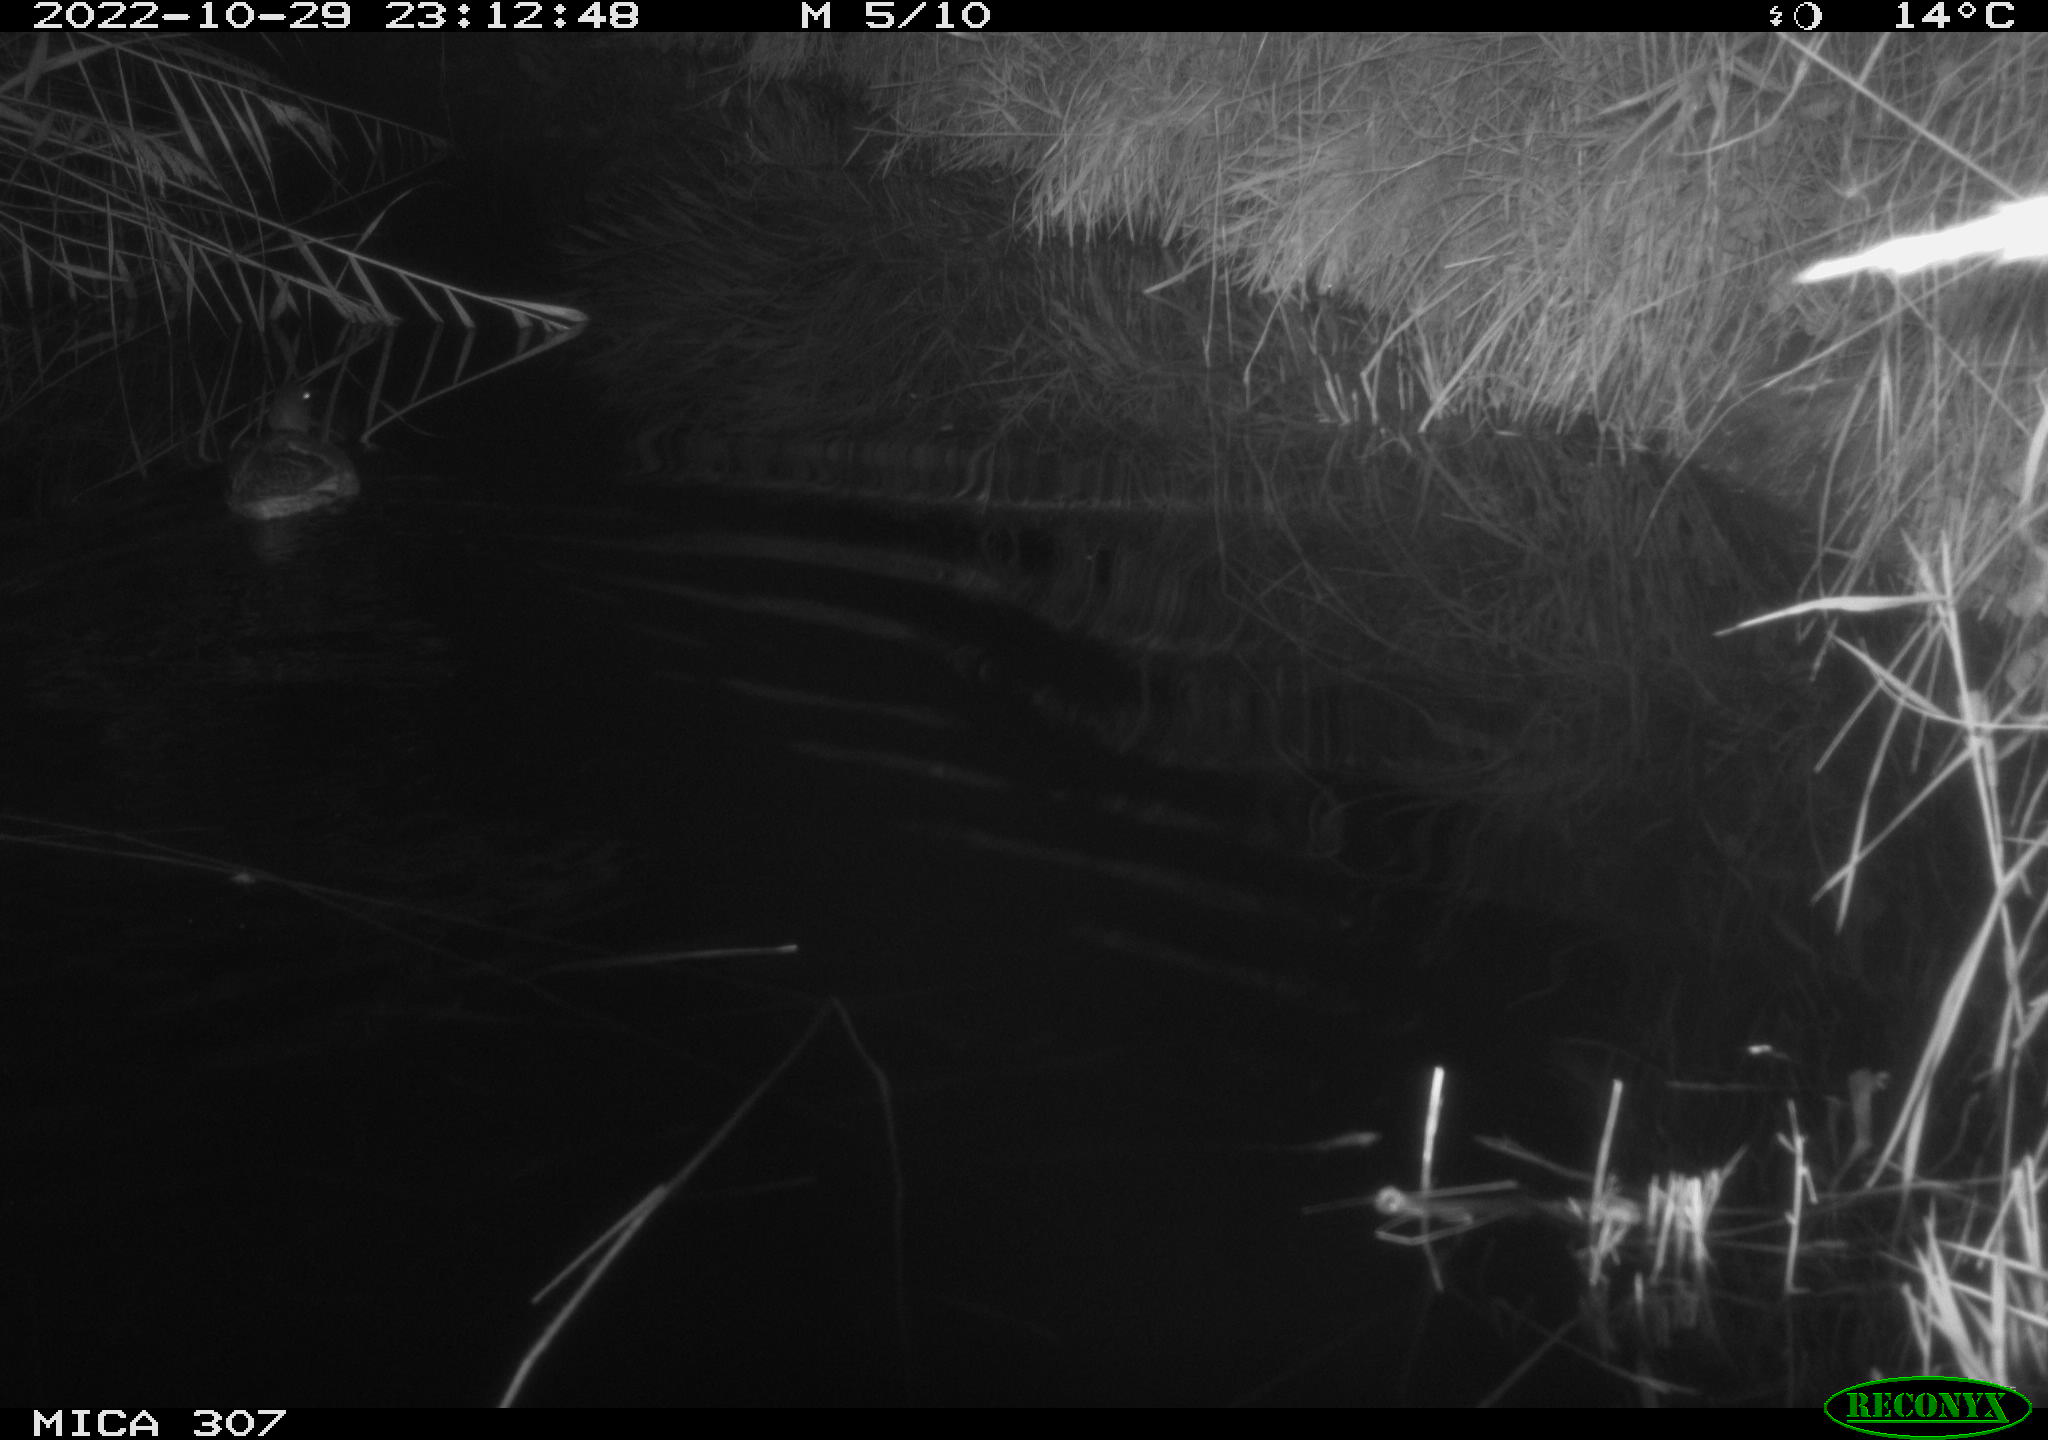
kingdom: Animalia
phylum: Chordata
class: Aves
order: Anseriformes
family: Anatidae
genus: Anas
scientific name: Anas platyrhynchos
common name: Mallard
